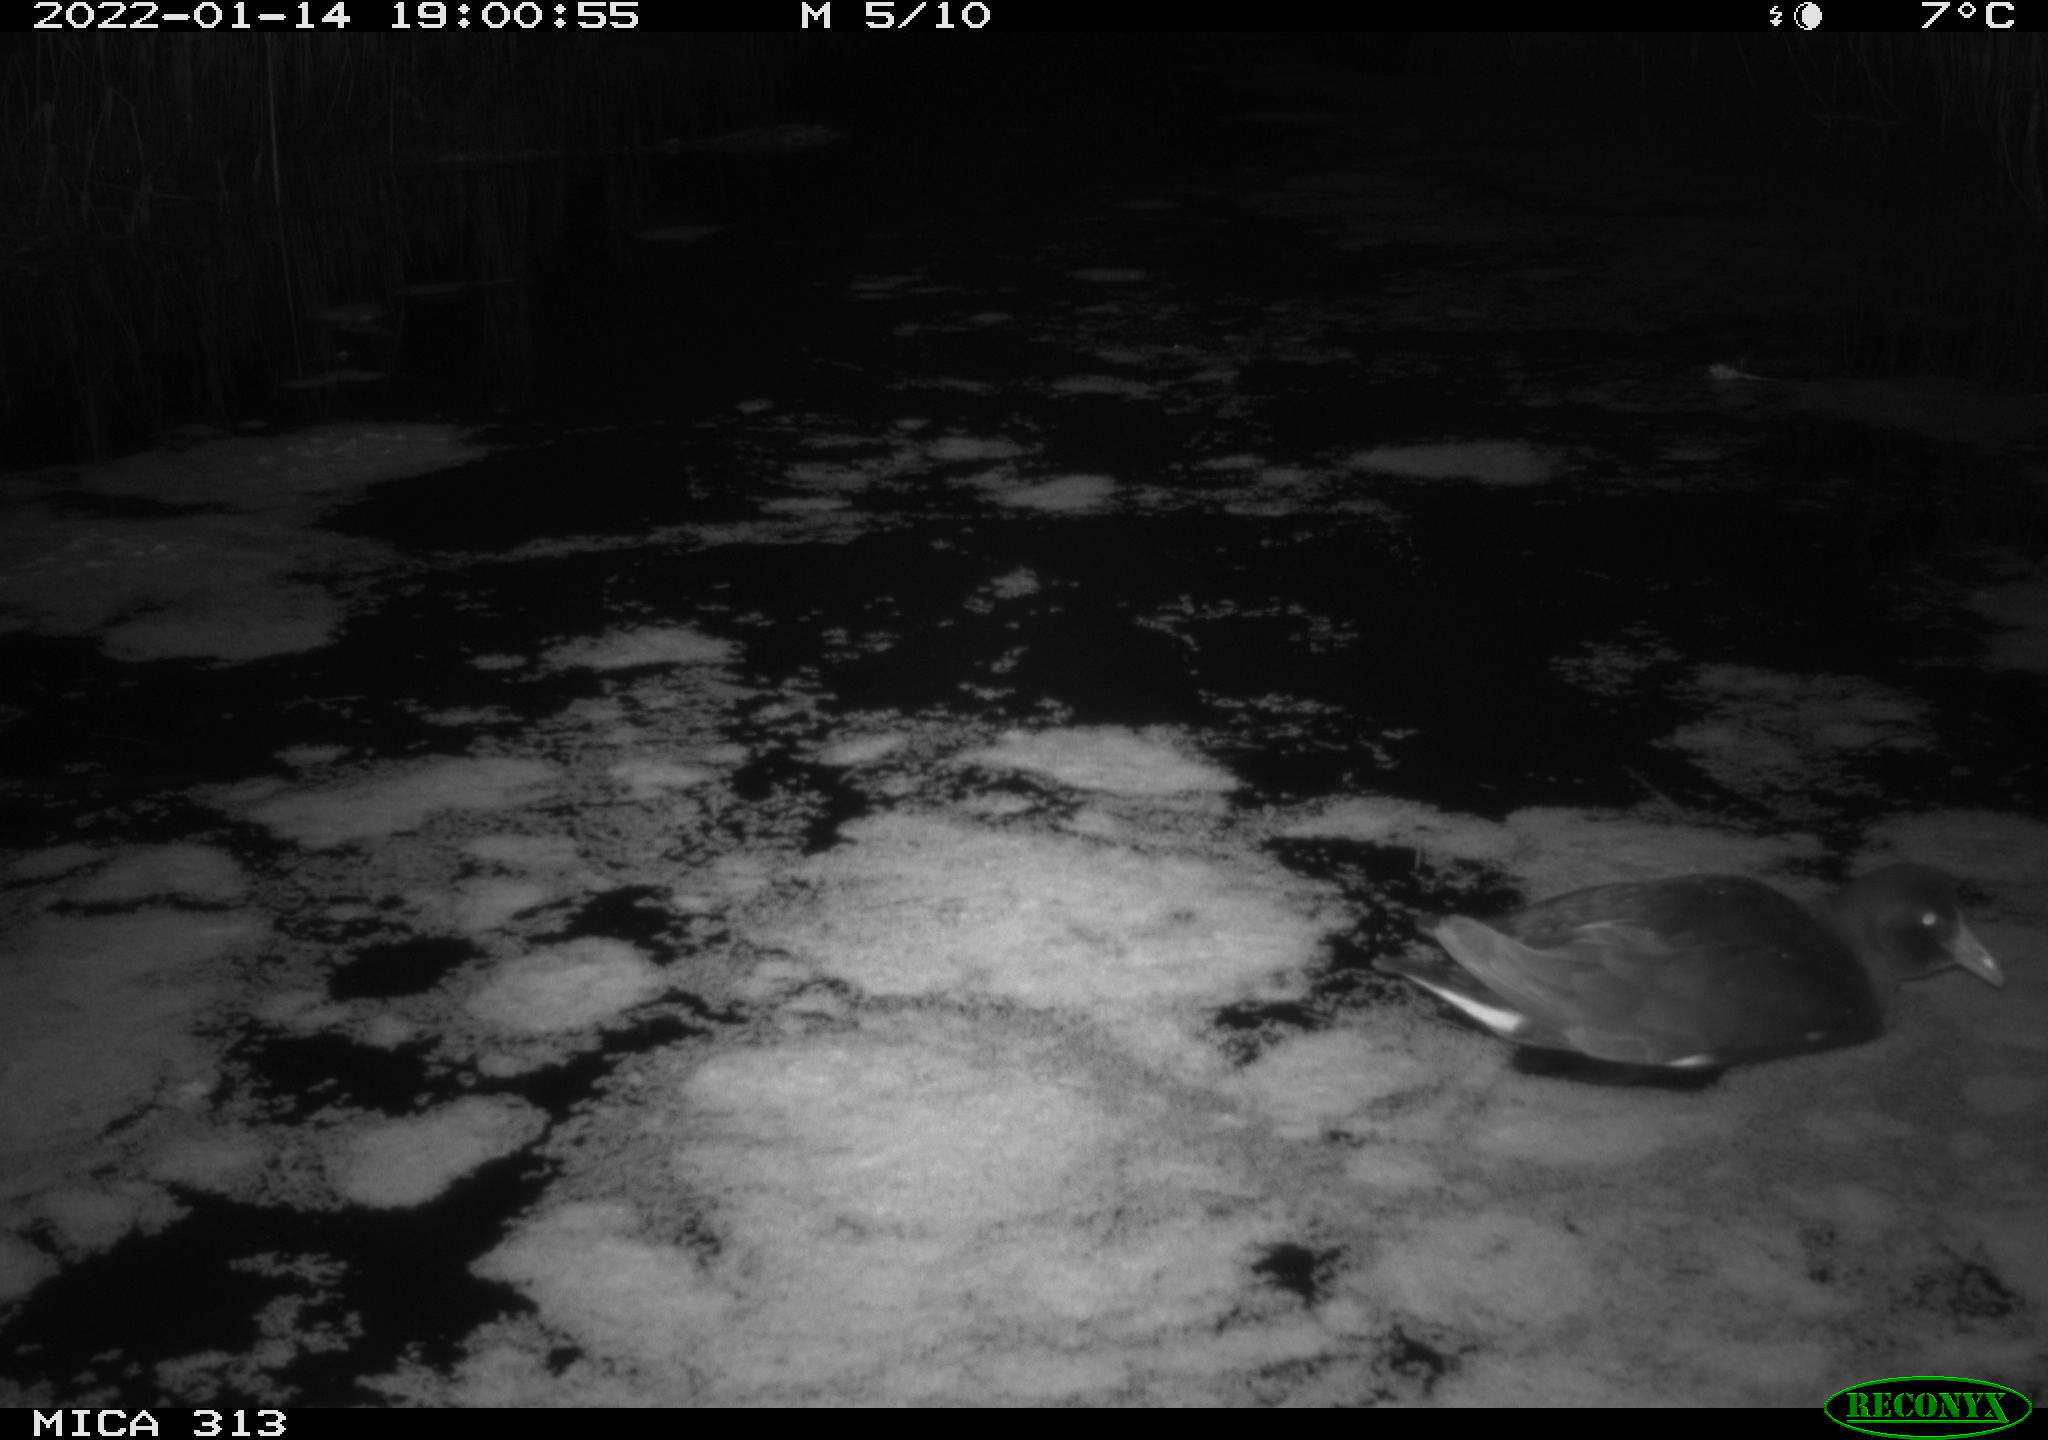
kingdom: Animalia
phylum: Chordata
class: Aves
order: Gruiformes
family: Rallidae
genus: Gallinula
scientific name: Gallinula chloropus
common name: Common moorhen
